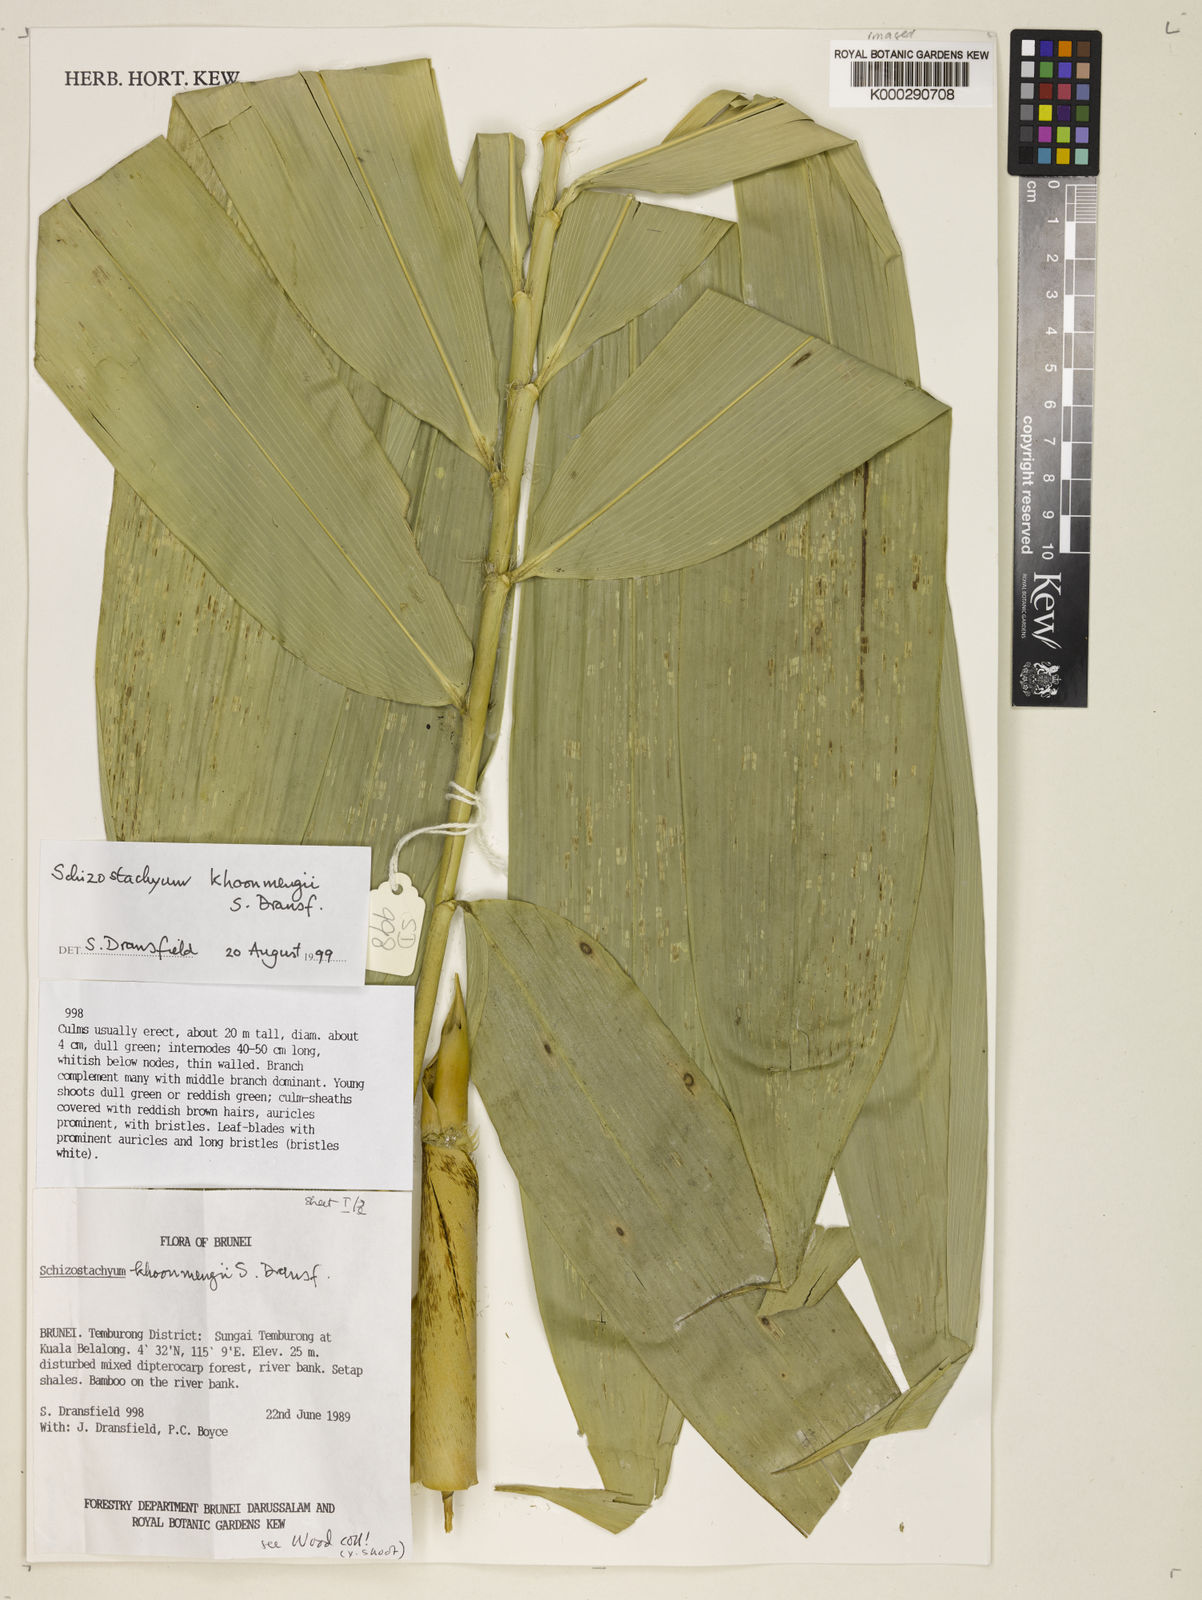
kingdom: Plantae
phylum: Tracheophyta
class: Liliopsida
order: Poales
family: Poaceae
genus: Schizostachyum
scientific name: Schizostachyum khoonmengii
